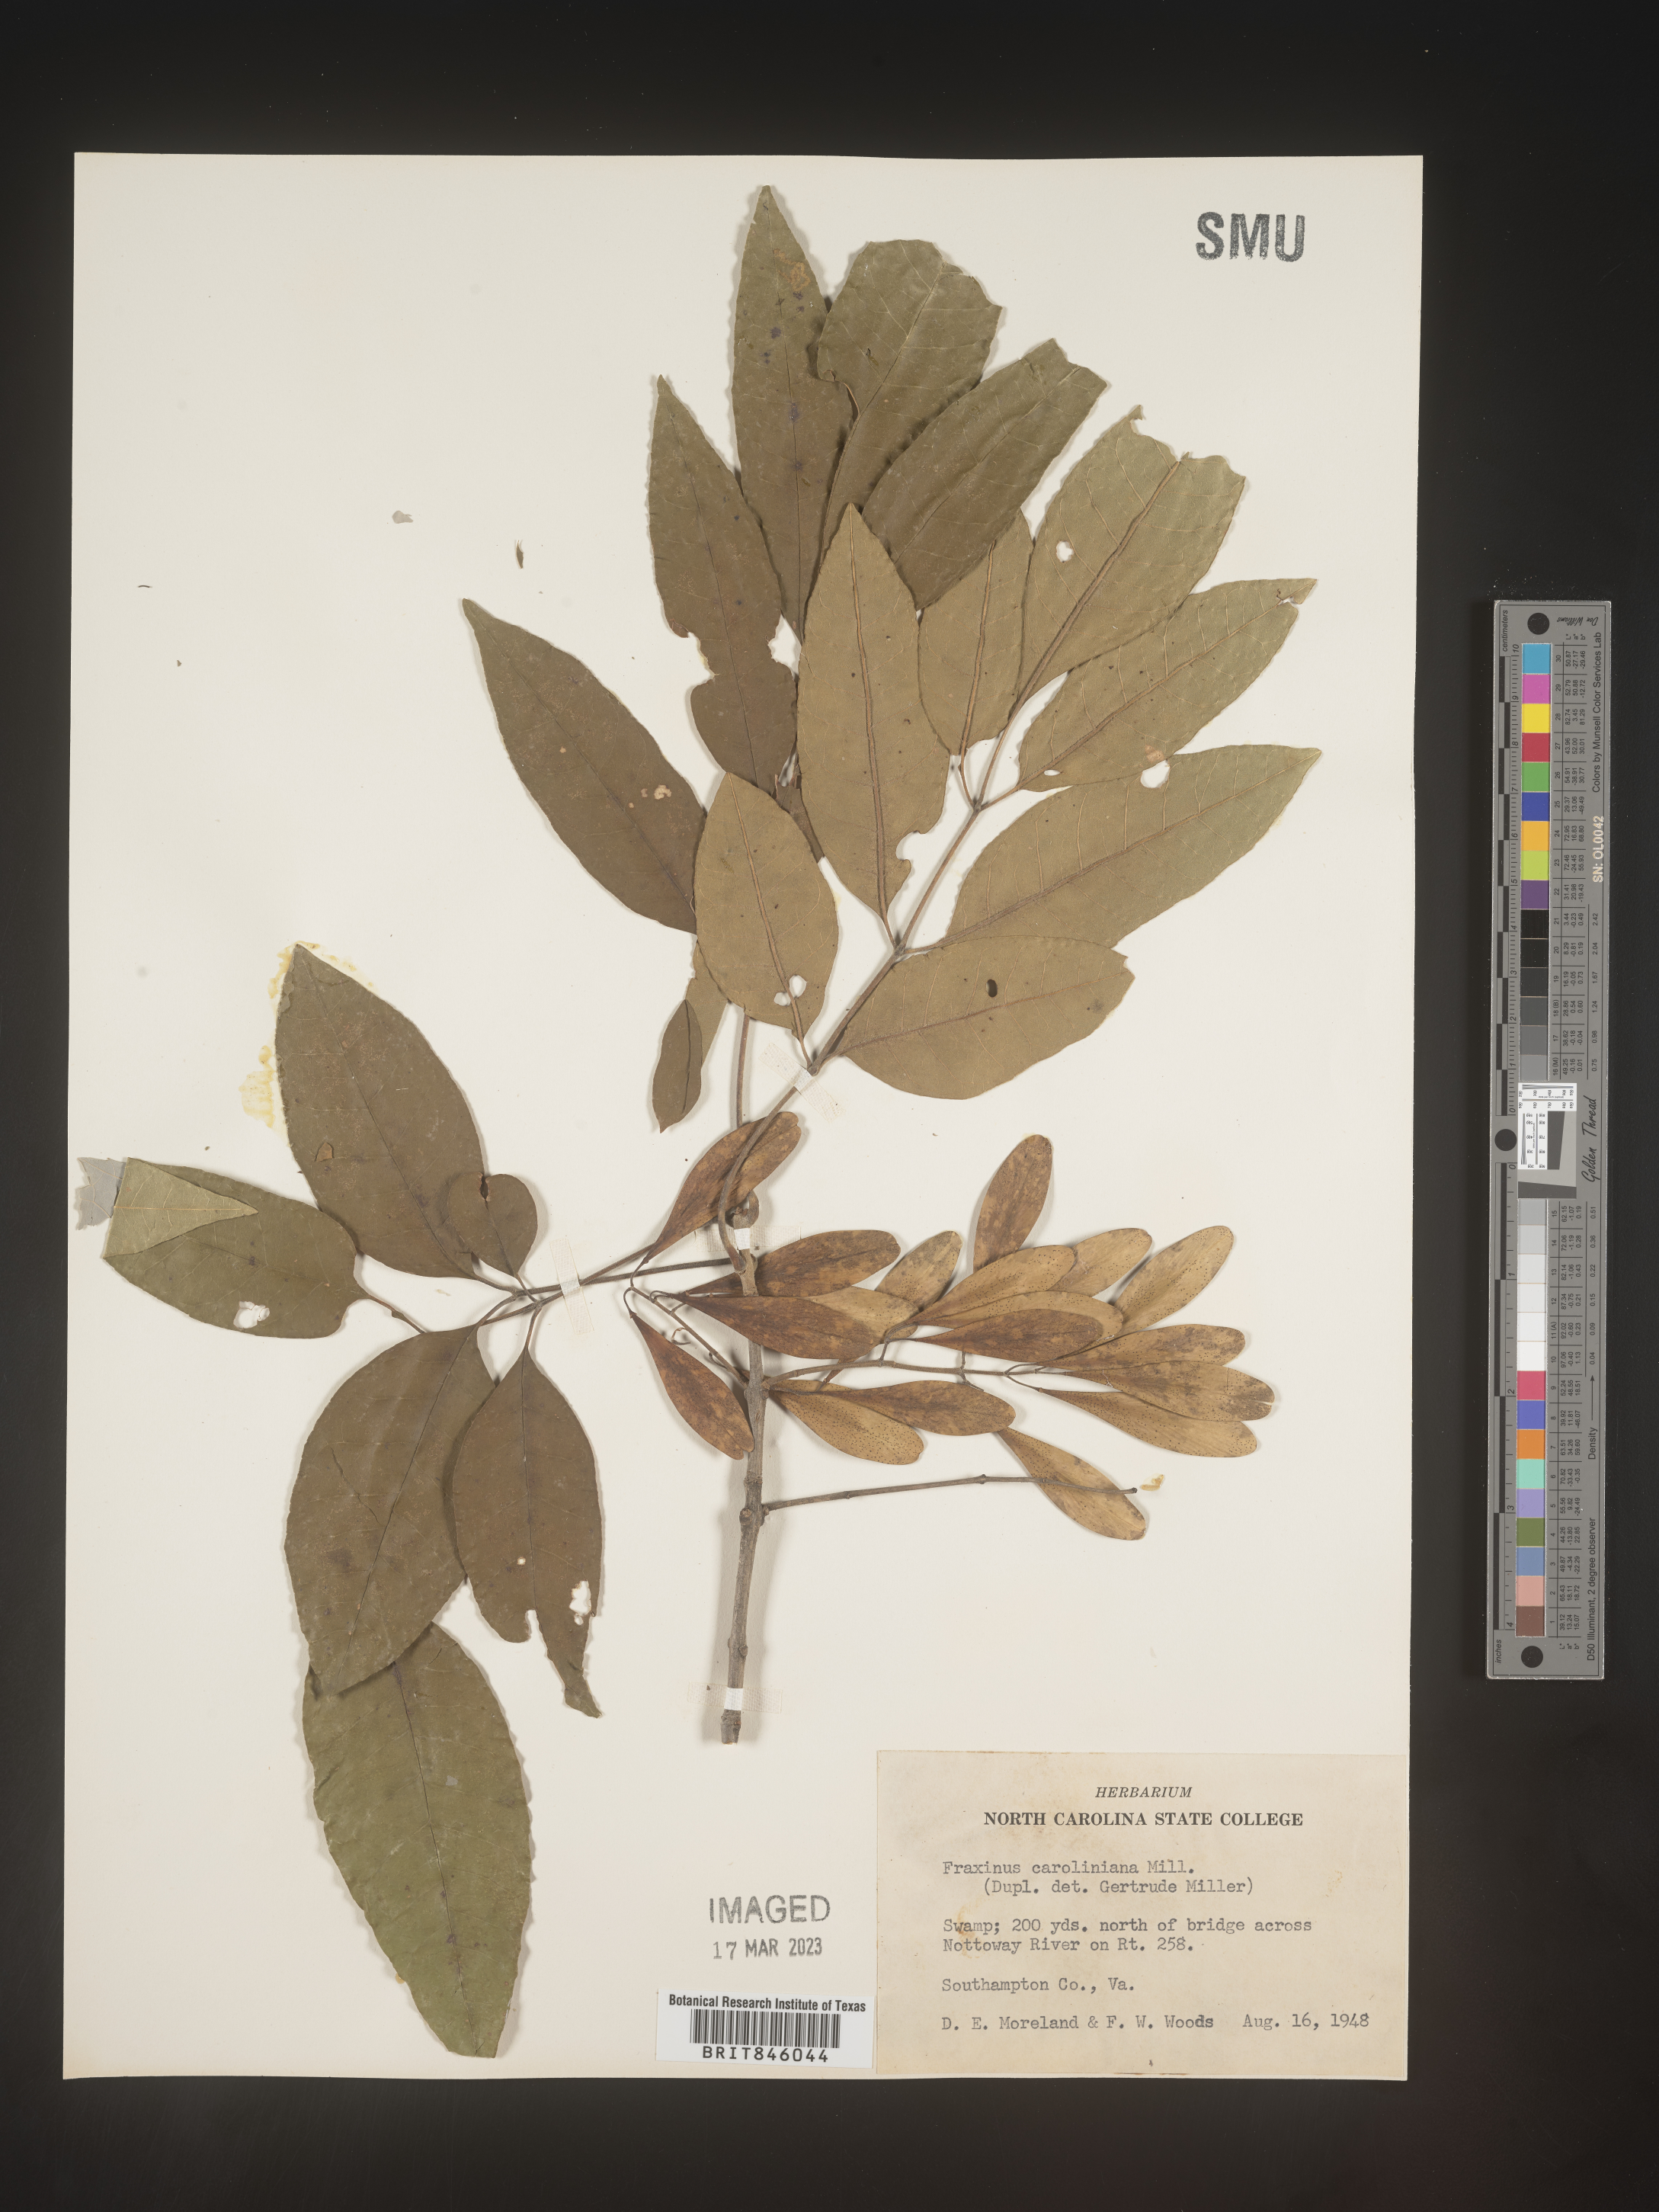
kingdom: Plantae
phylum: Tracheophyta
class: Magnoliopsida
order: Lamiales
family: Oleaceae
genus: Fraxinus
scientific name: Fraxinus caroliniana
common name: Carolina ash
